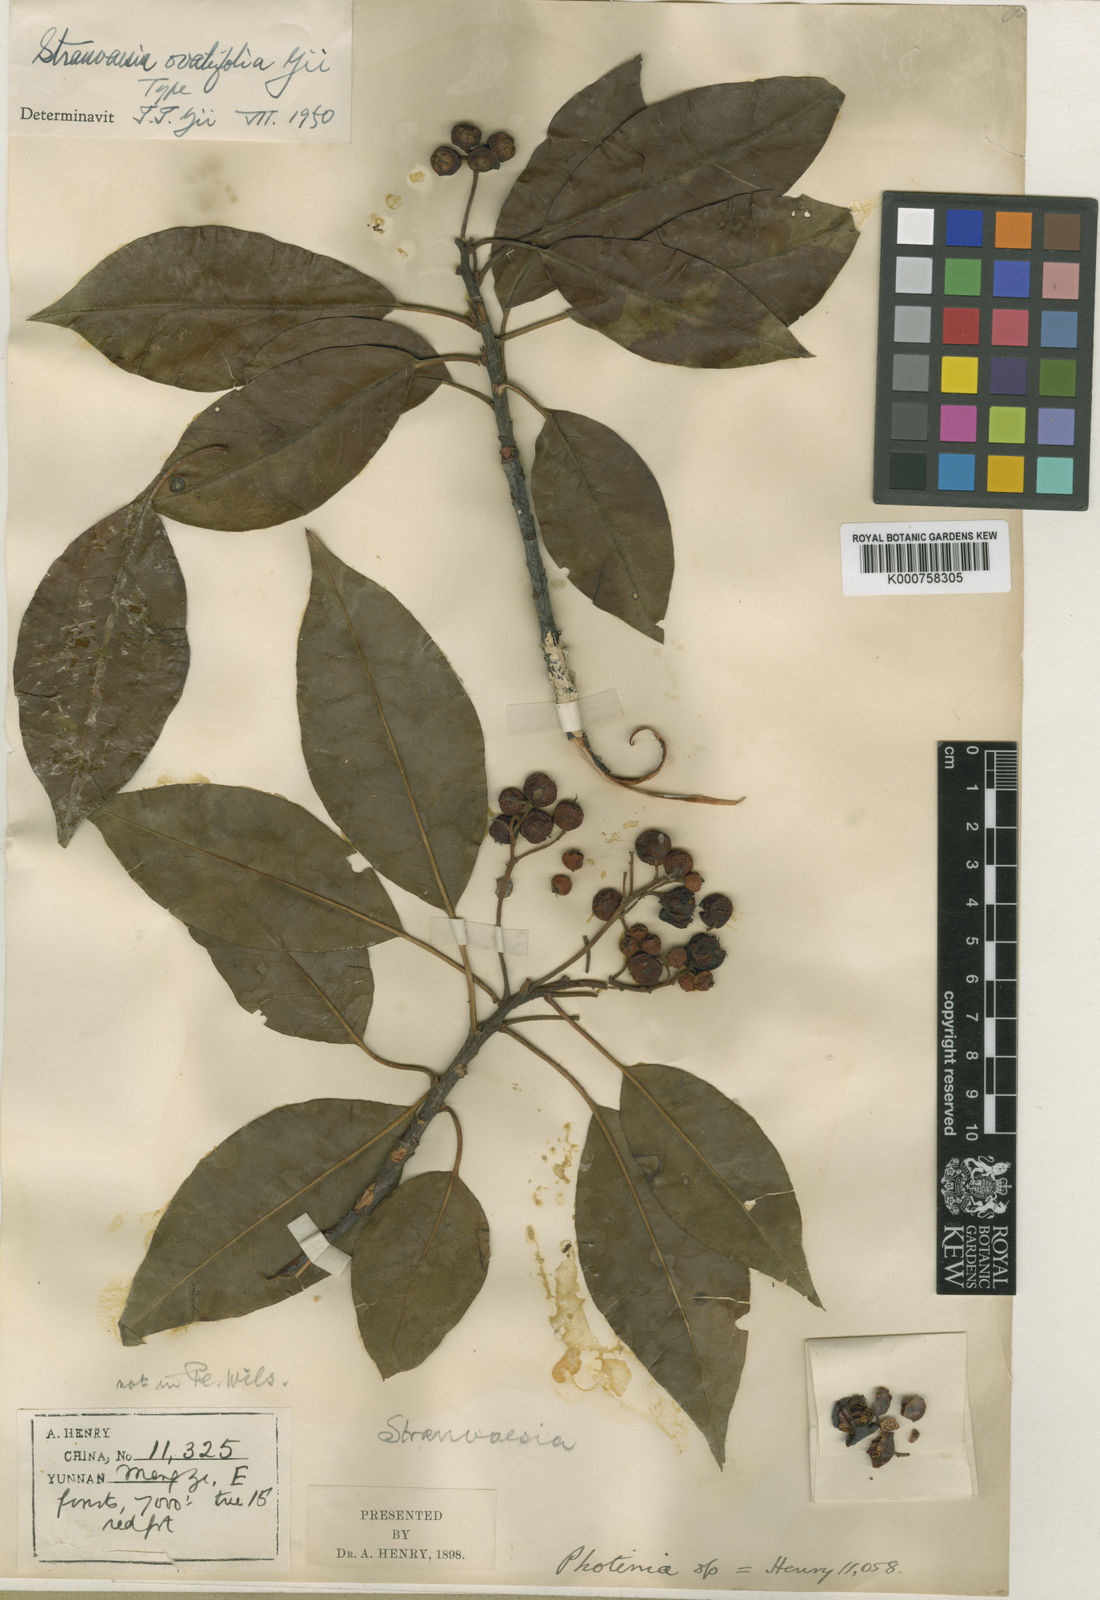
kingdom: Plantae
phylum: Tracheophyta
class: Magnoliopsida
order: Rosales
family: Rosaceae
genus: Stranvaesia
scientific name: Stranvaesia davidiana
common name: Chinese photinia
